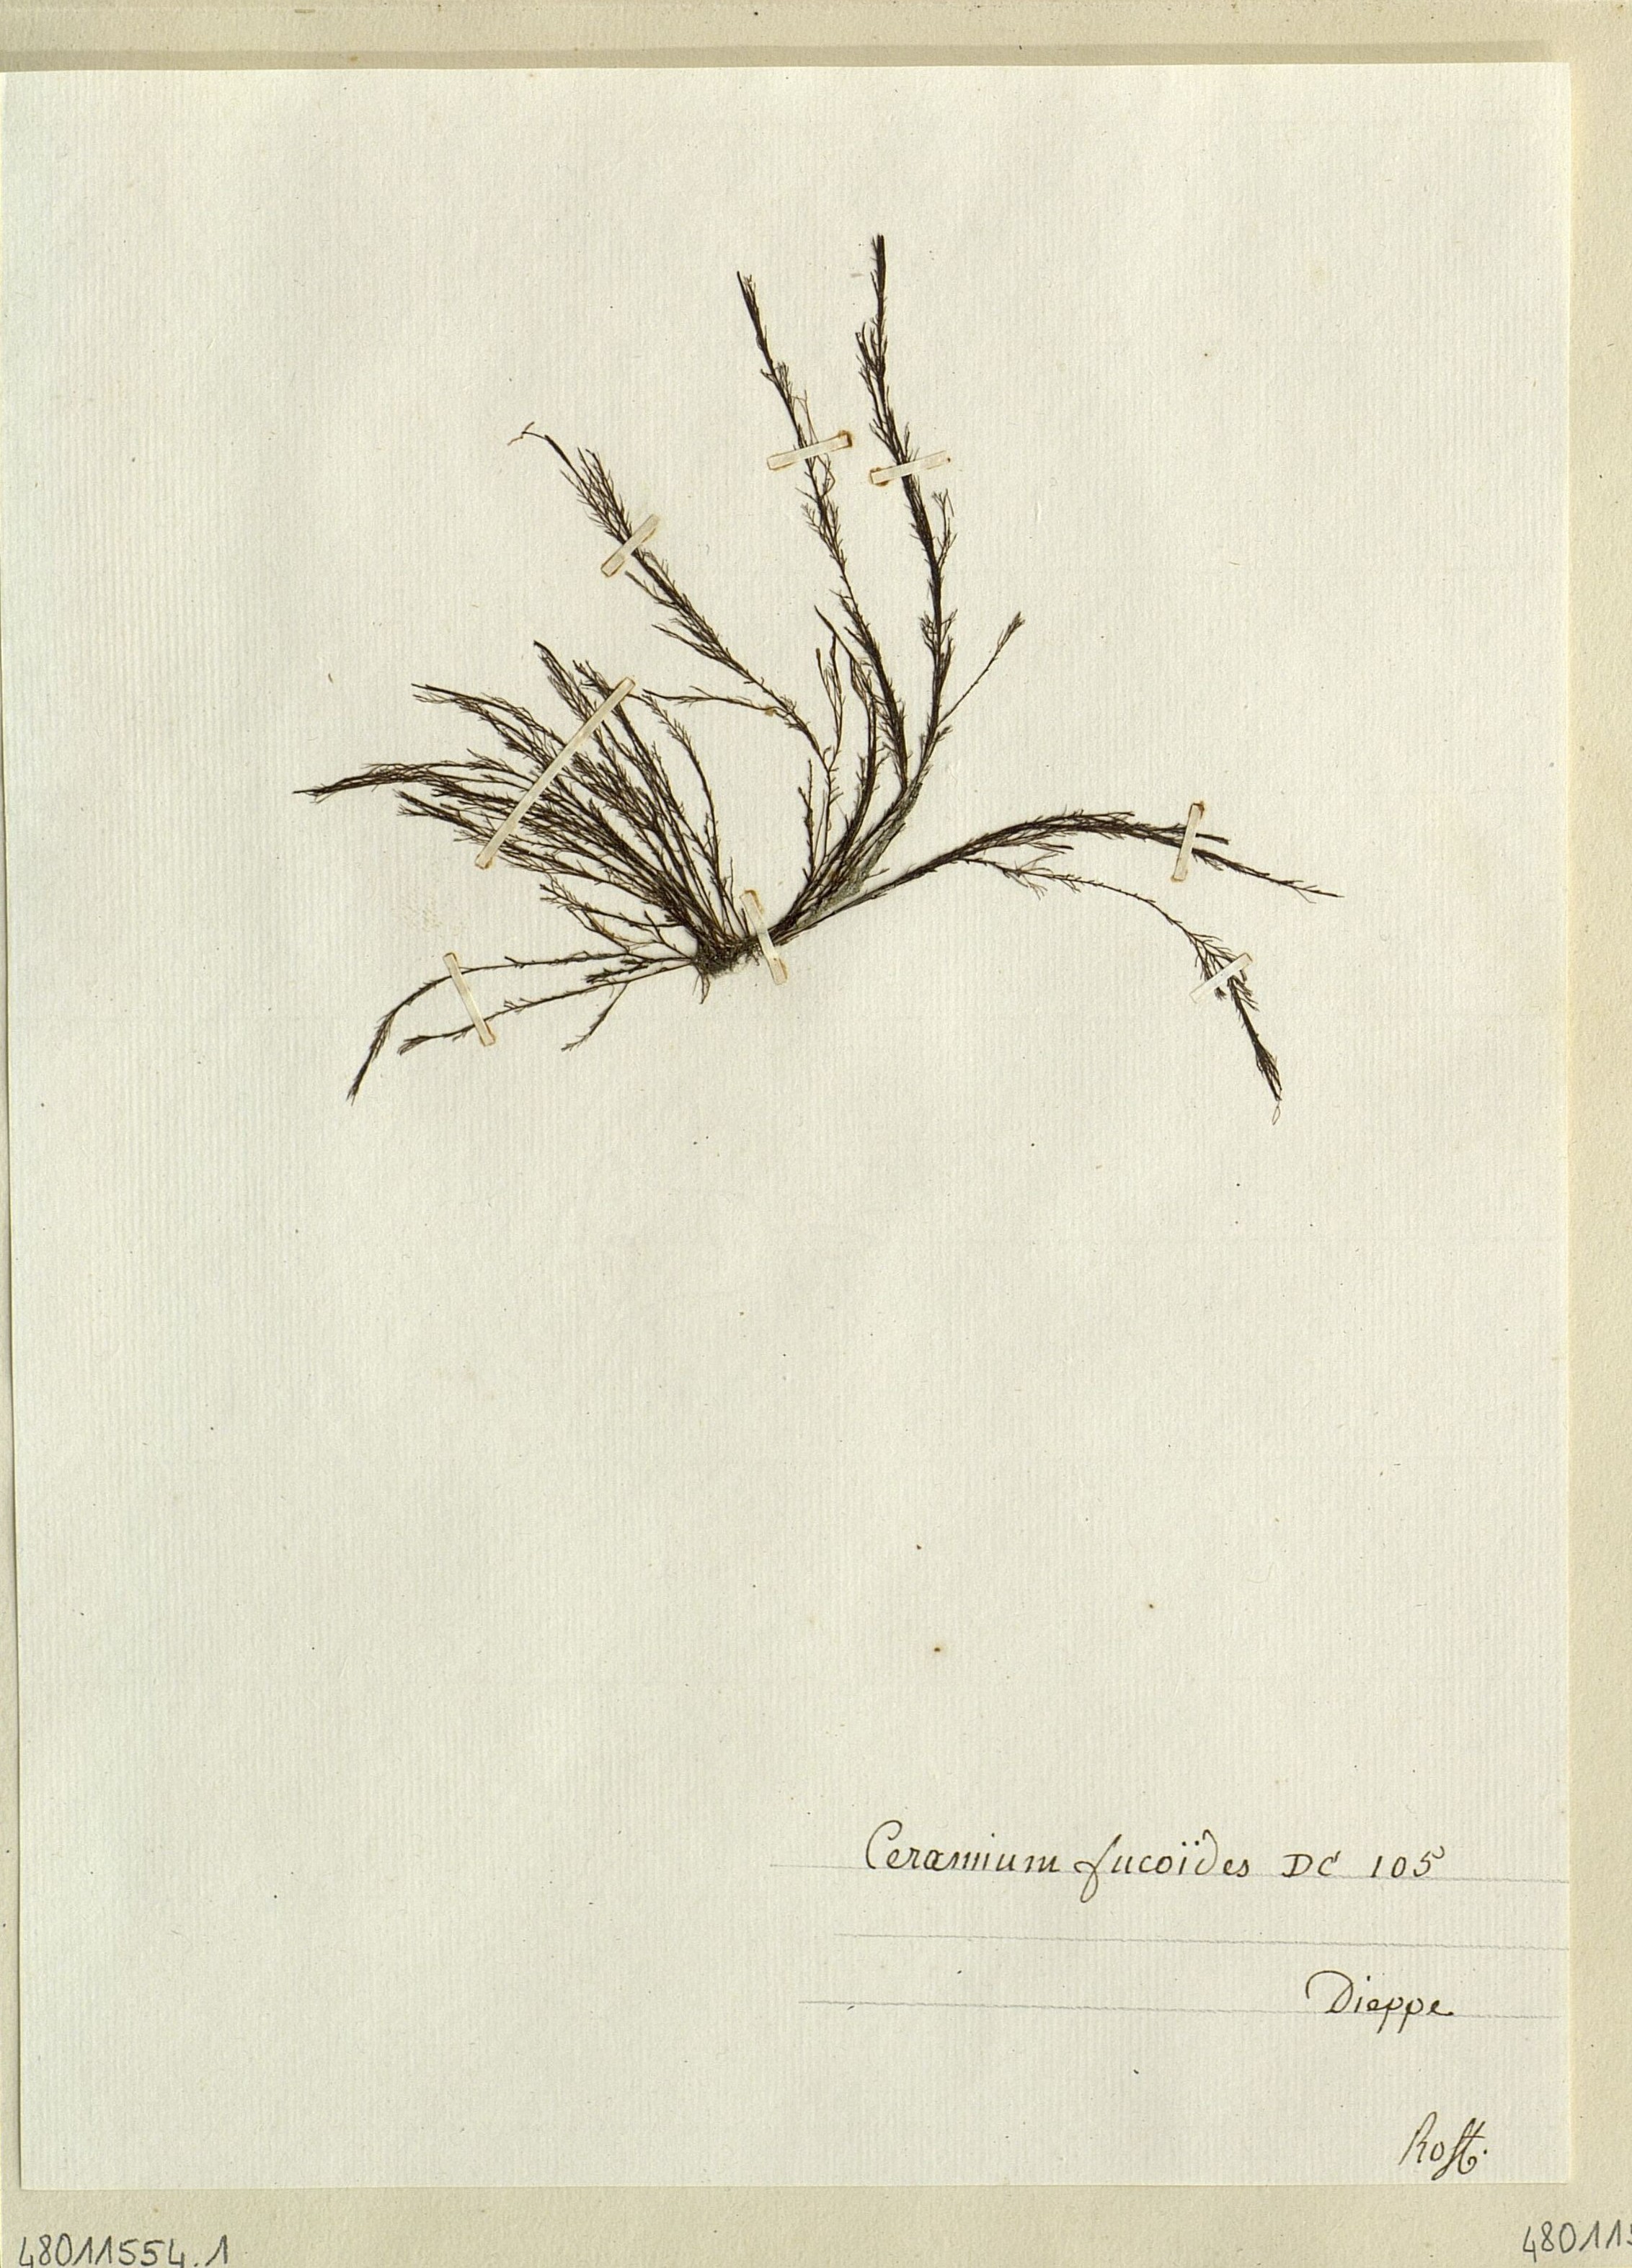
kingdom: Plantae
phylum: Rhodophyta
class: Florideophyceae
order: Ceramiales
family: Ceramiaceae
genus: Ceramium
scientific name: Ceramium
